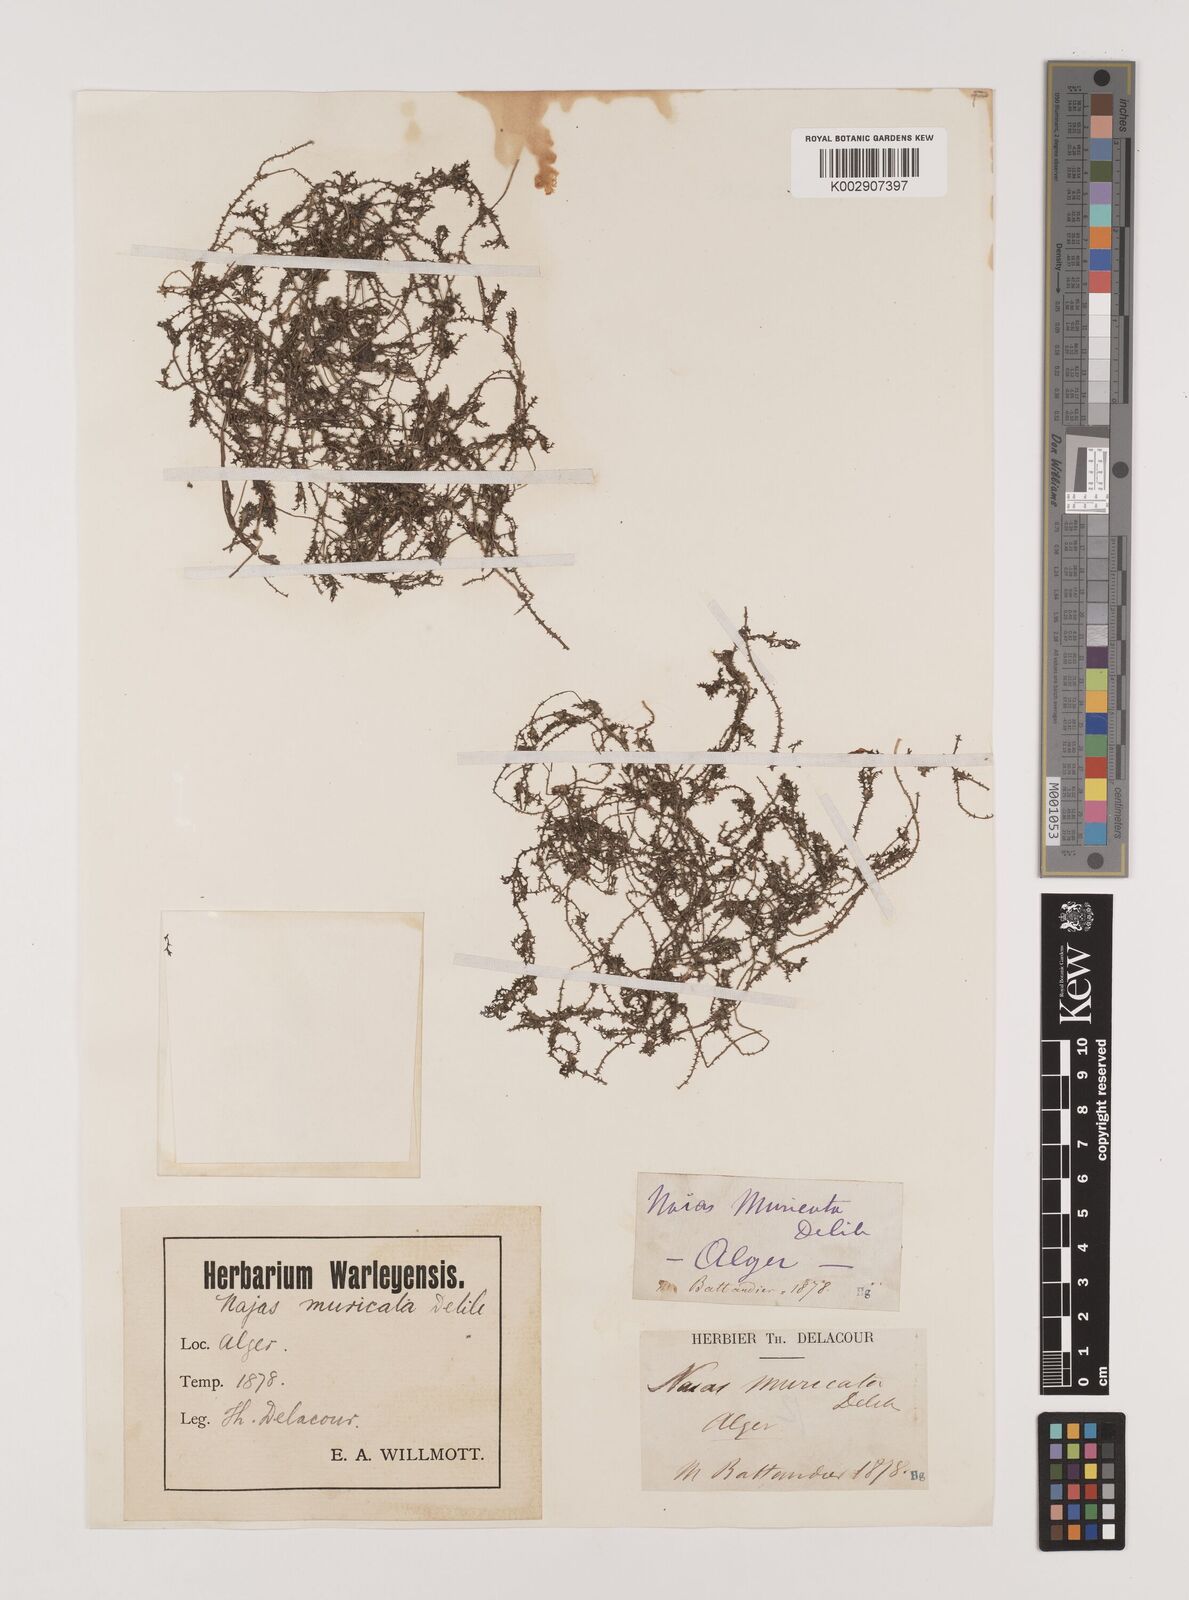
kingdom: Plantae
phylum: Tracheophyta
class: Liliopsida
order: Alismatales
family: Hydrocharitaceae
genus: Najas
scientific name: Najas marina
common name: Holly-leaved naiad
